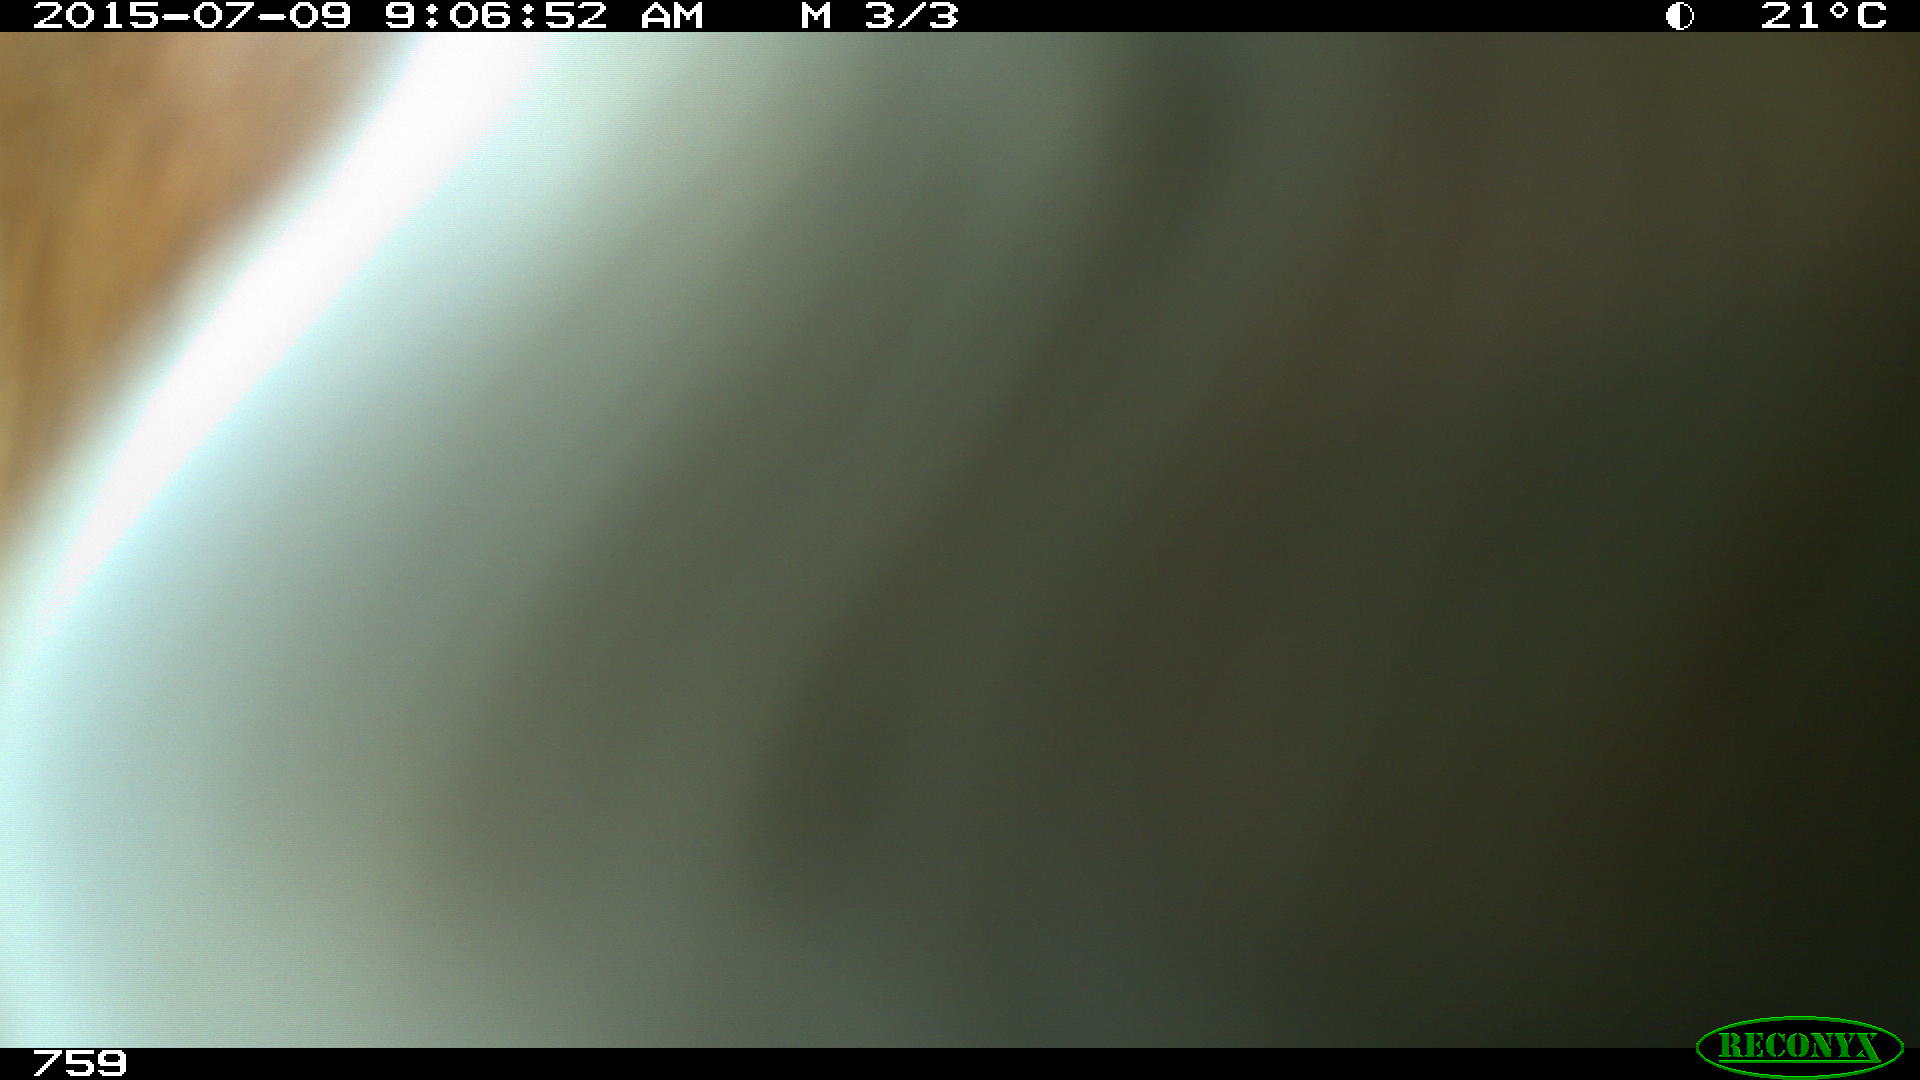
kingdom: Animalia
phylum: Chordata
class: Mammalia
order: Artiodactyla
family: Bovidae
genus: Bos
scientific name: Bos taurus
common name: Domesticated cattle
